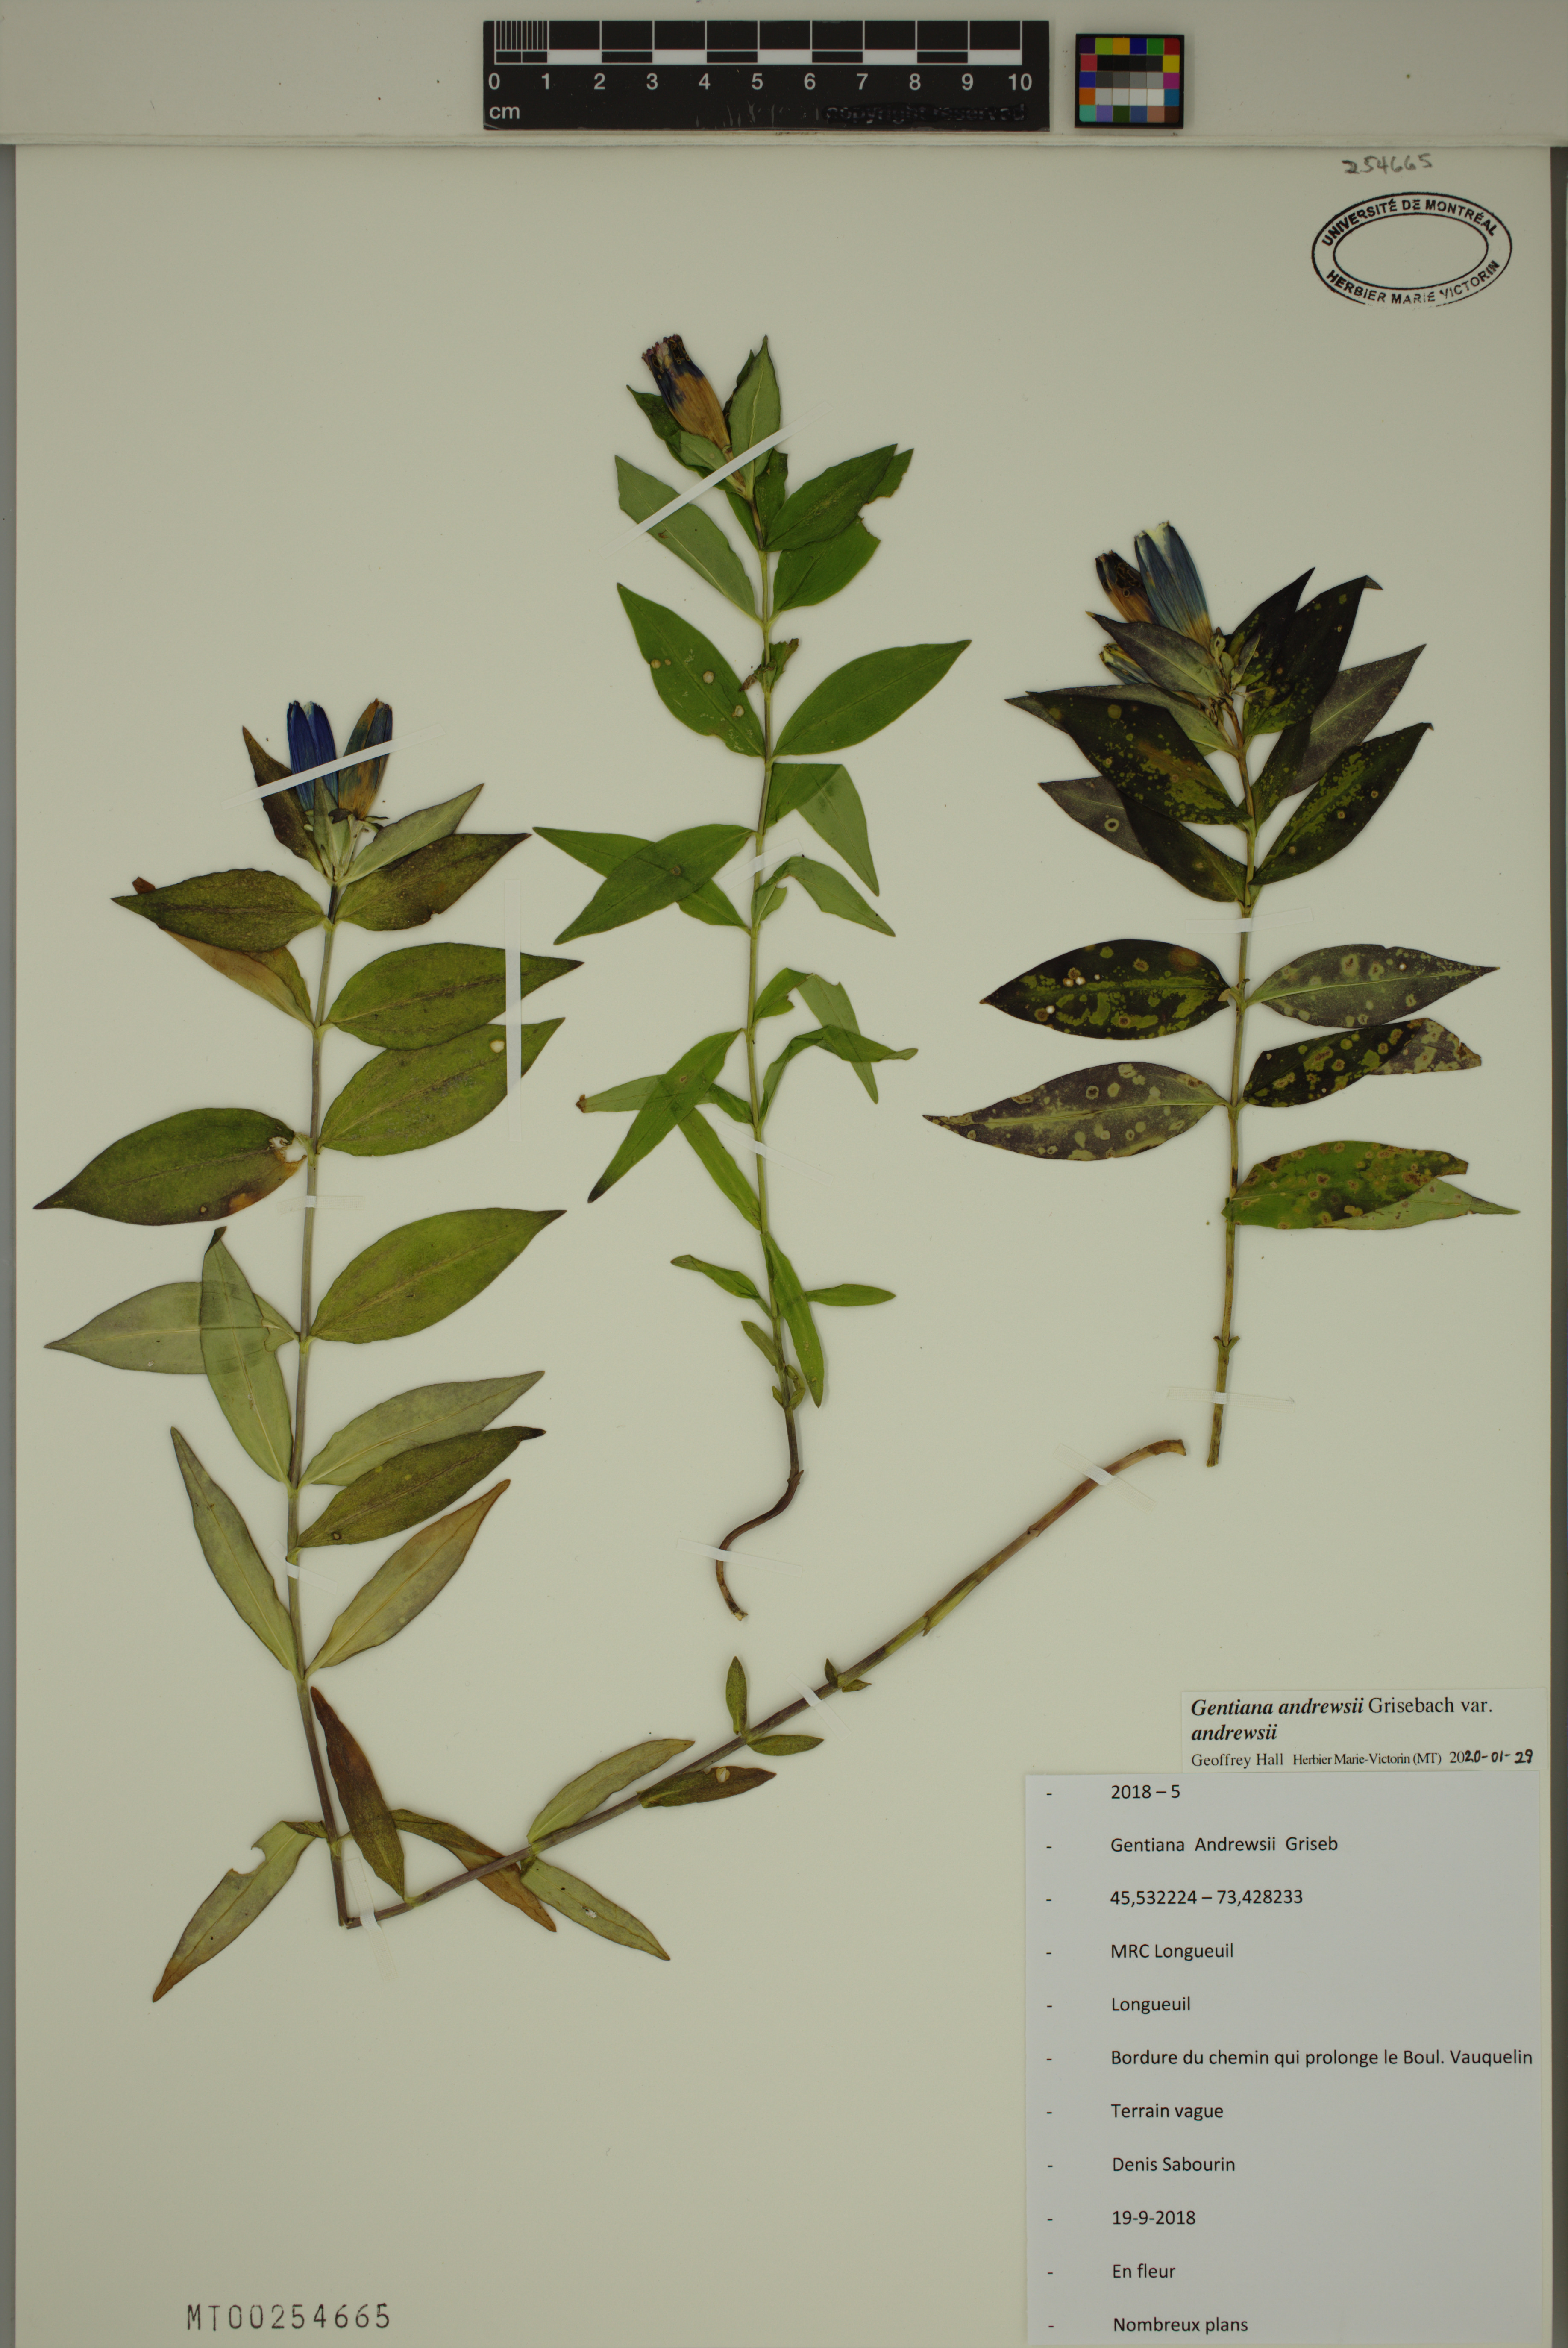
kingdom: Plantae
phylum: Tracheophyta
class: Magnoliopsida
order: Gentianales
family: Gentianaceae
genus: Gentiana
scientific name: Gentiana andrewsii
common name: Bottle gentian
